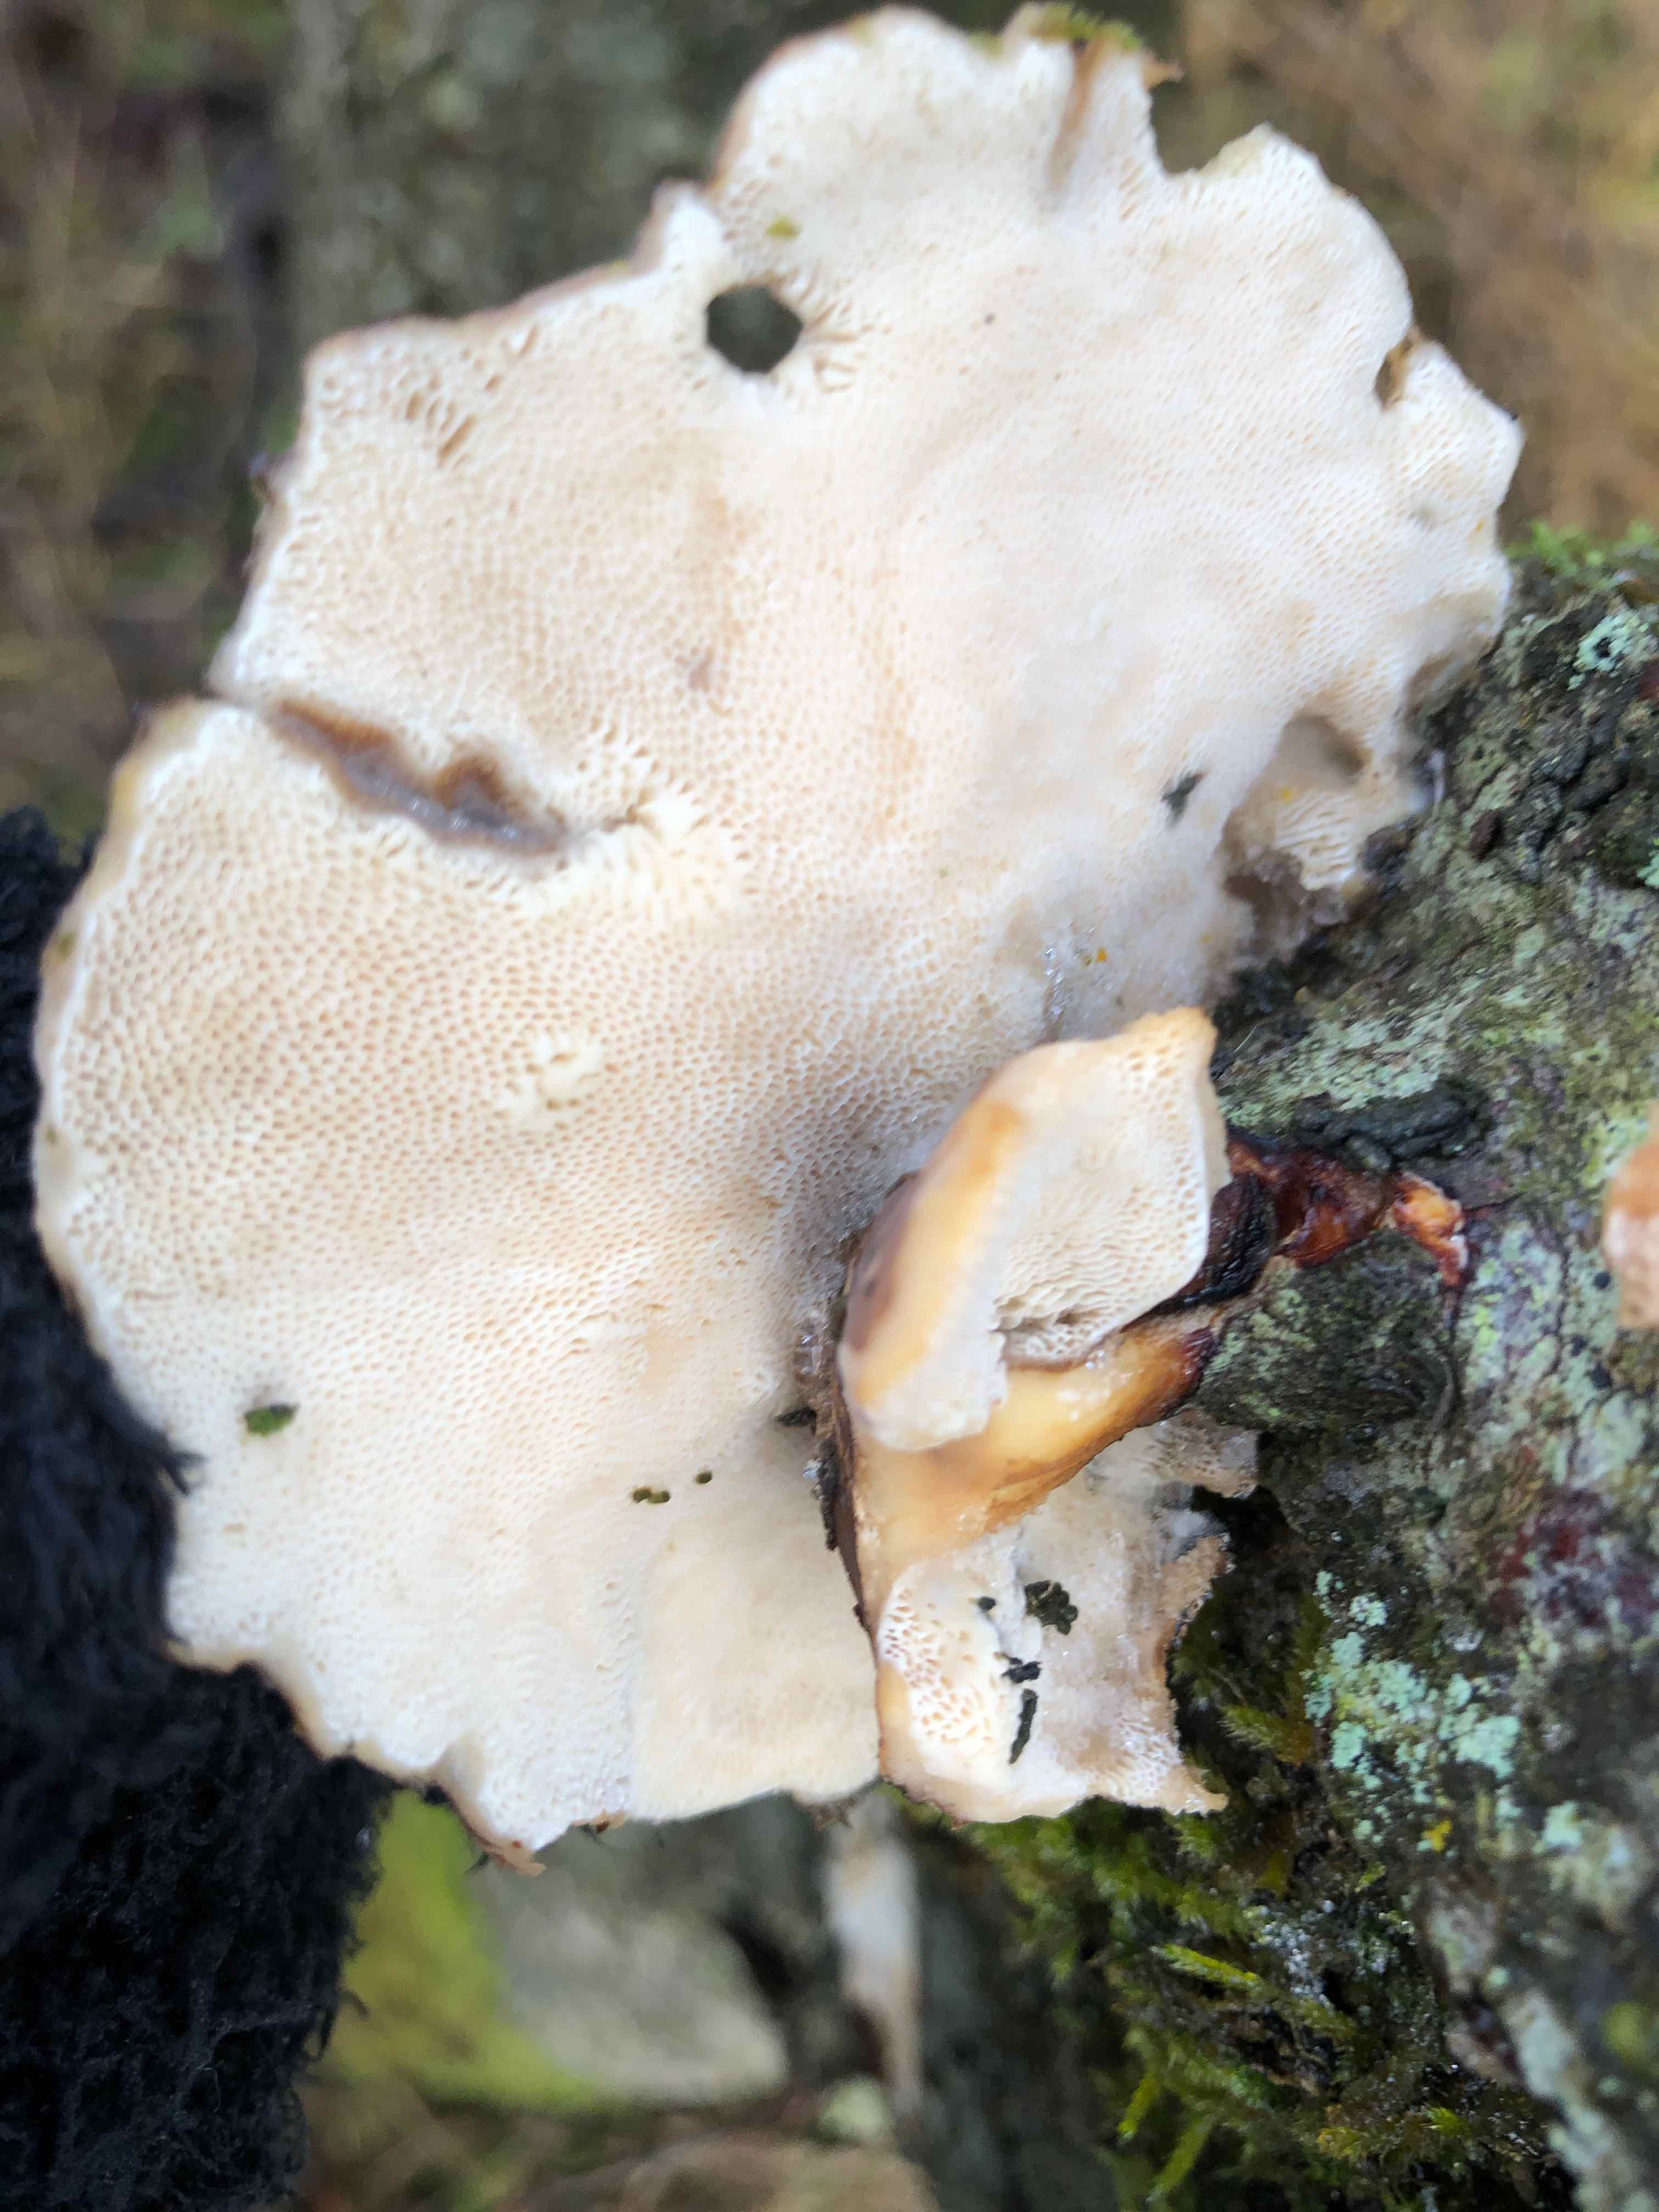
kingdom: Fungi
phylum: Basidiomycota
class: Agaricomycetes
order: Polyporales
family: Polyporaceae
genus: Lentinus
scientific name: Lentinus brumalis
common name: vinter-stilkporesvamp
